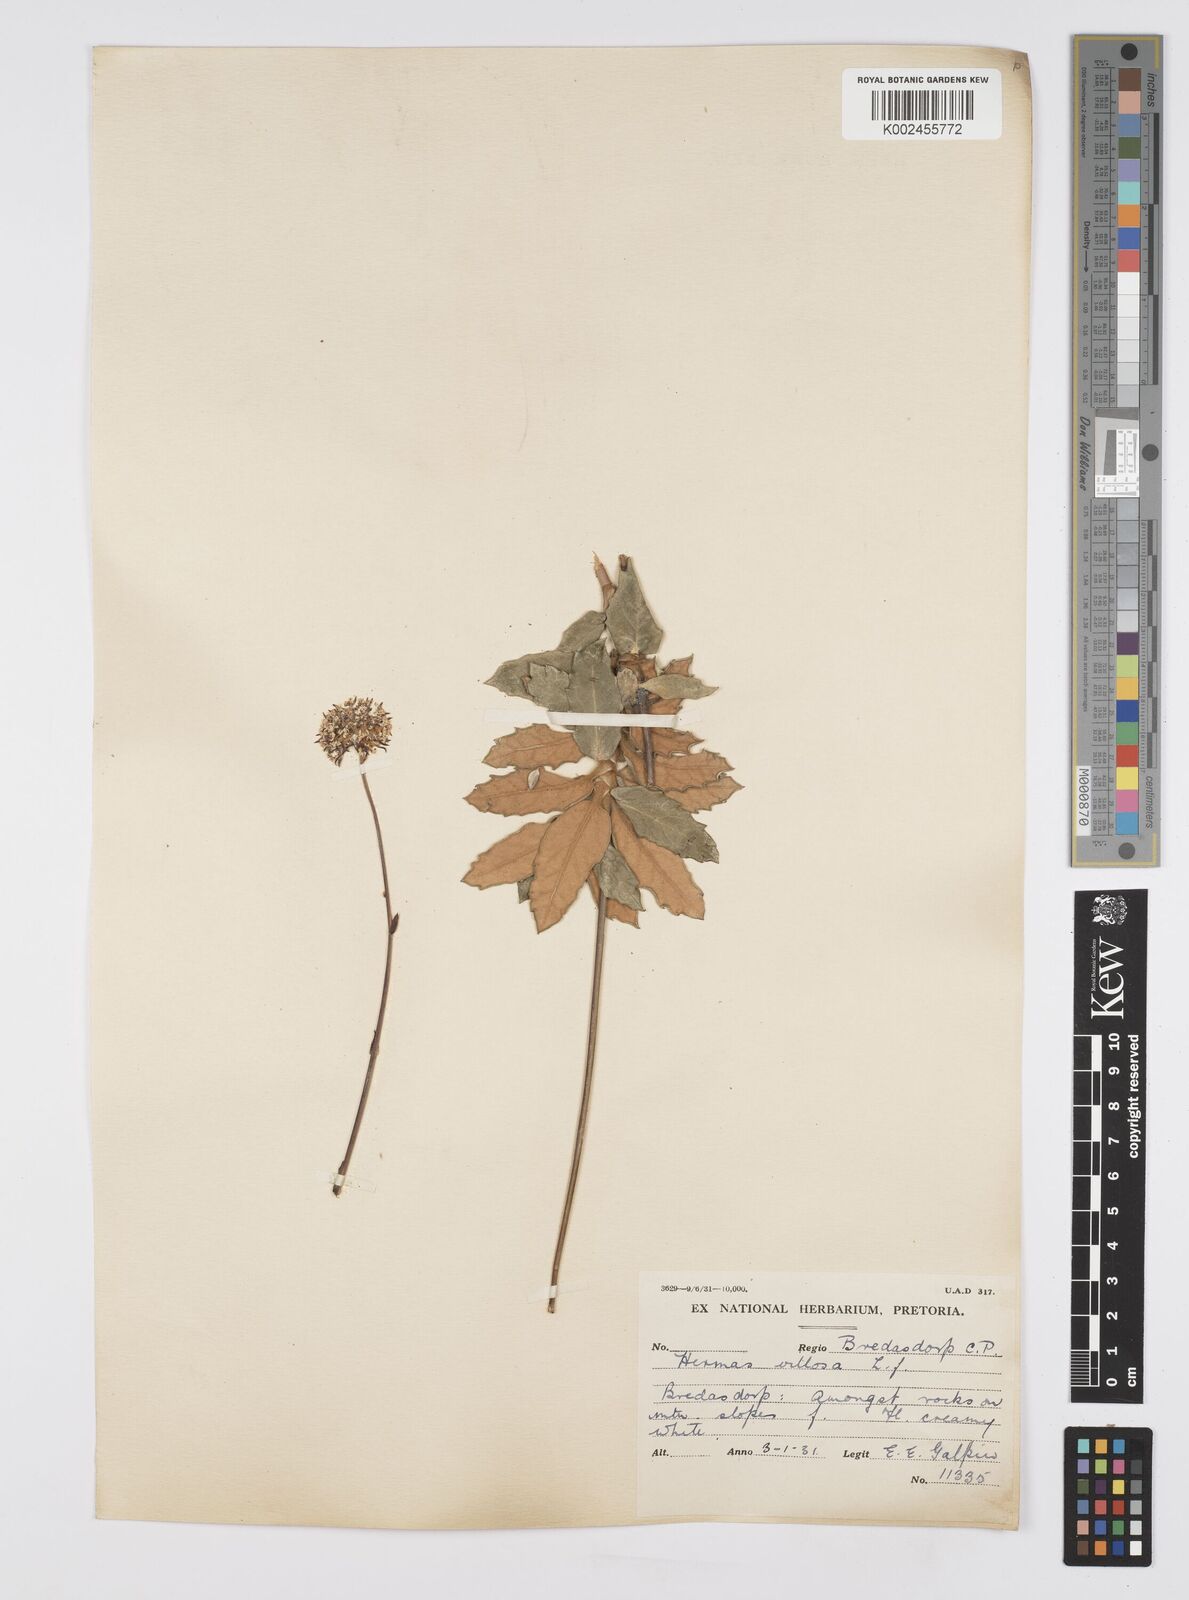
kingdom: Plantae
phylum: Tracheophyta
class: Magnoliopsida
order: Apiales
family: Apiaceae
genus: Hermas
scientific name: Hermas villosa
